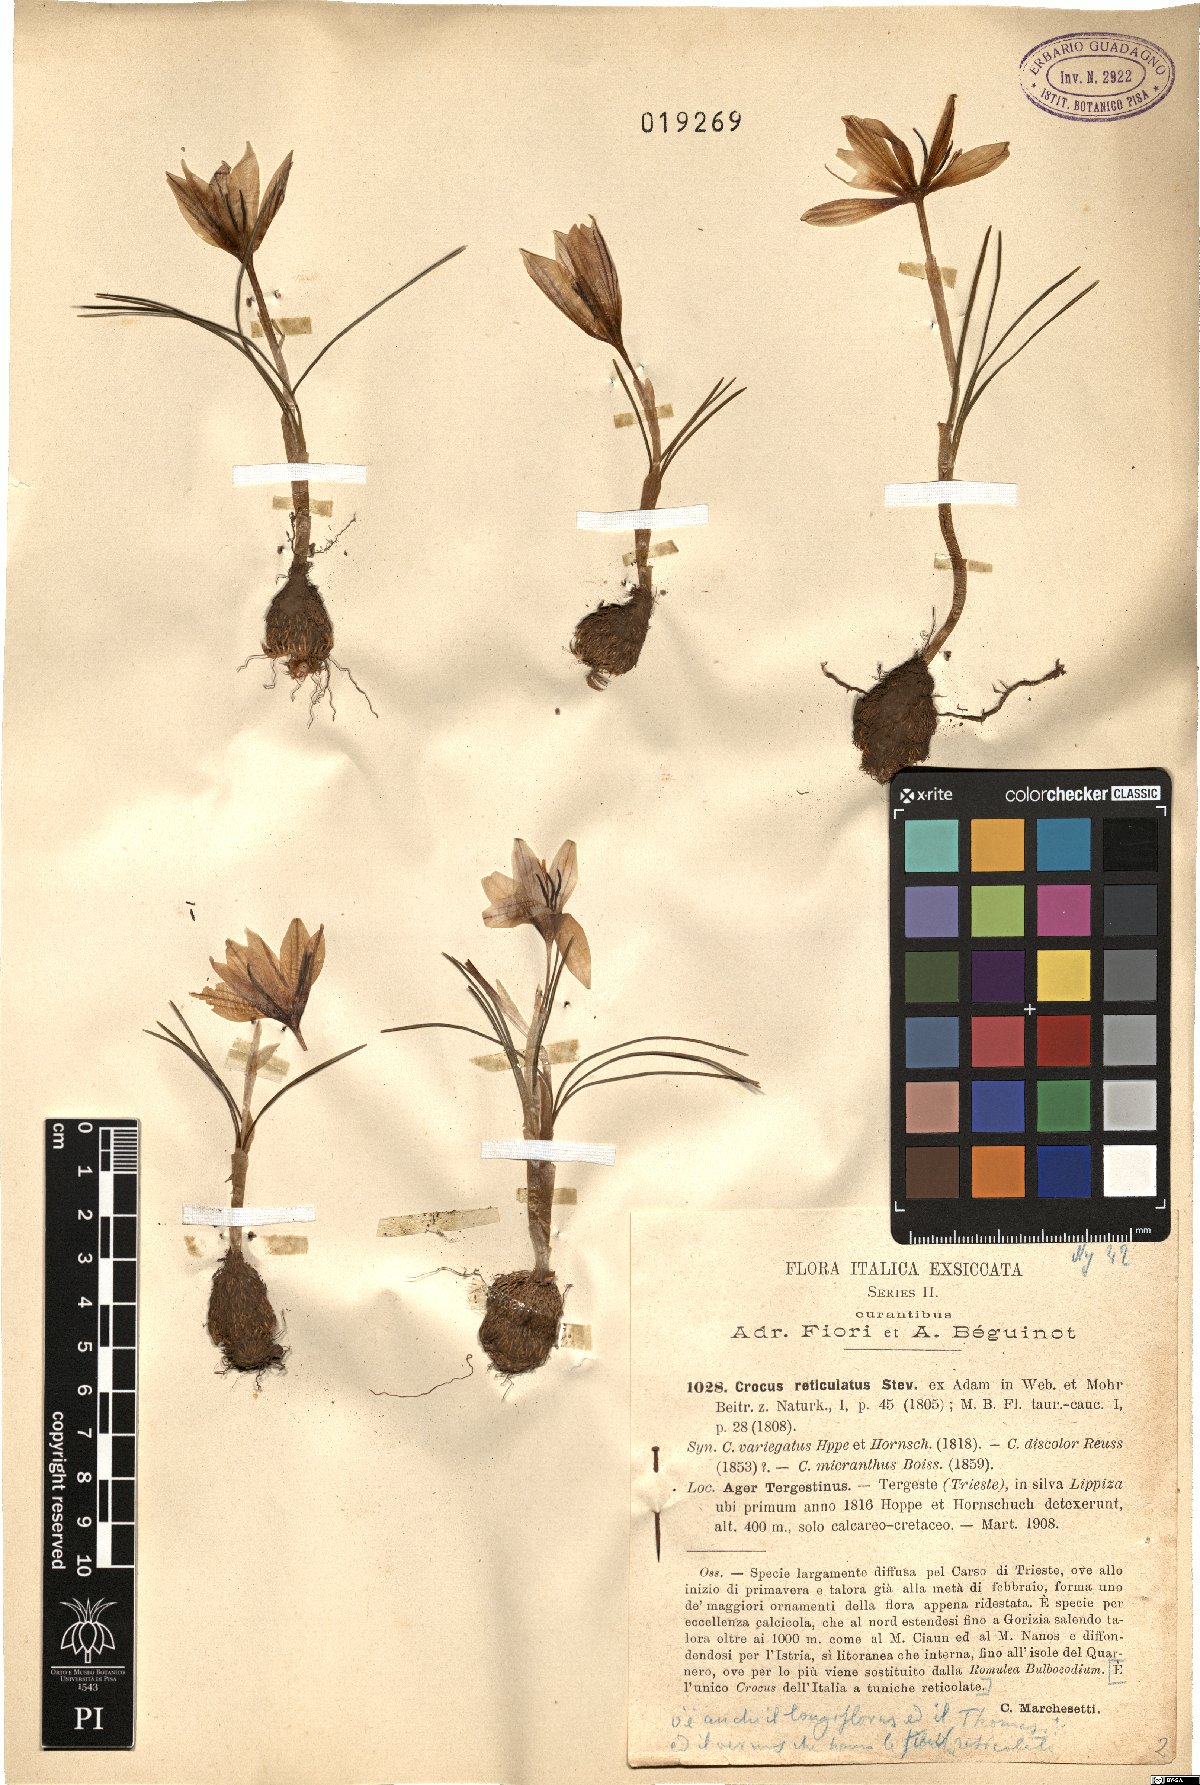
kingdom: Plantae
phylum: Tracheophyta
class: Liliopsida
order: Asparagales
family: Iridaceae
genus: Crocus
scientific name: Crocus reticulatus
